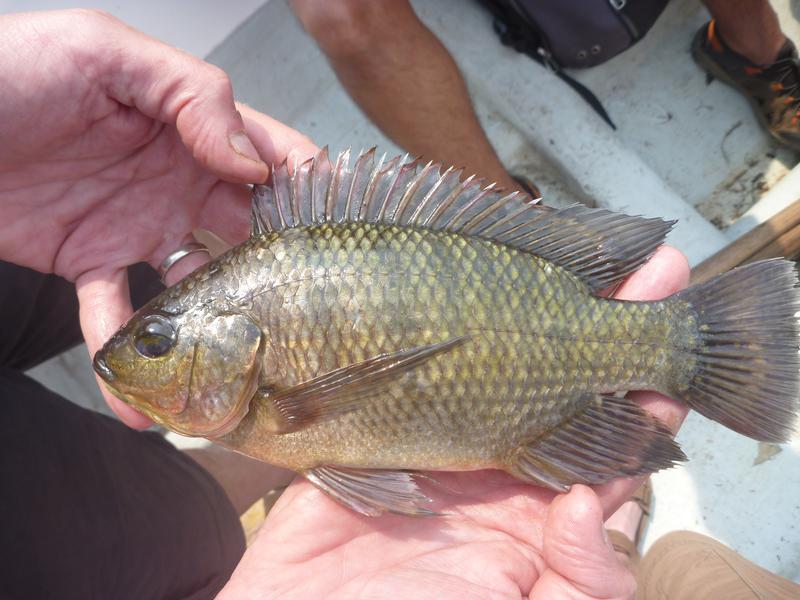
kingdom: Animalia
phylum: Chordata
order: Perciformes
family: Cichlidae
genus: Oreochromis
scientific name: Oreochromis variabilis
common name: Victoria tilapia
